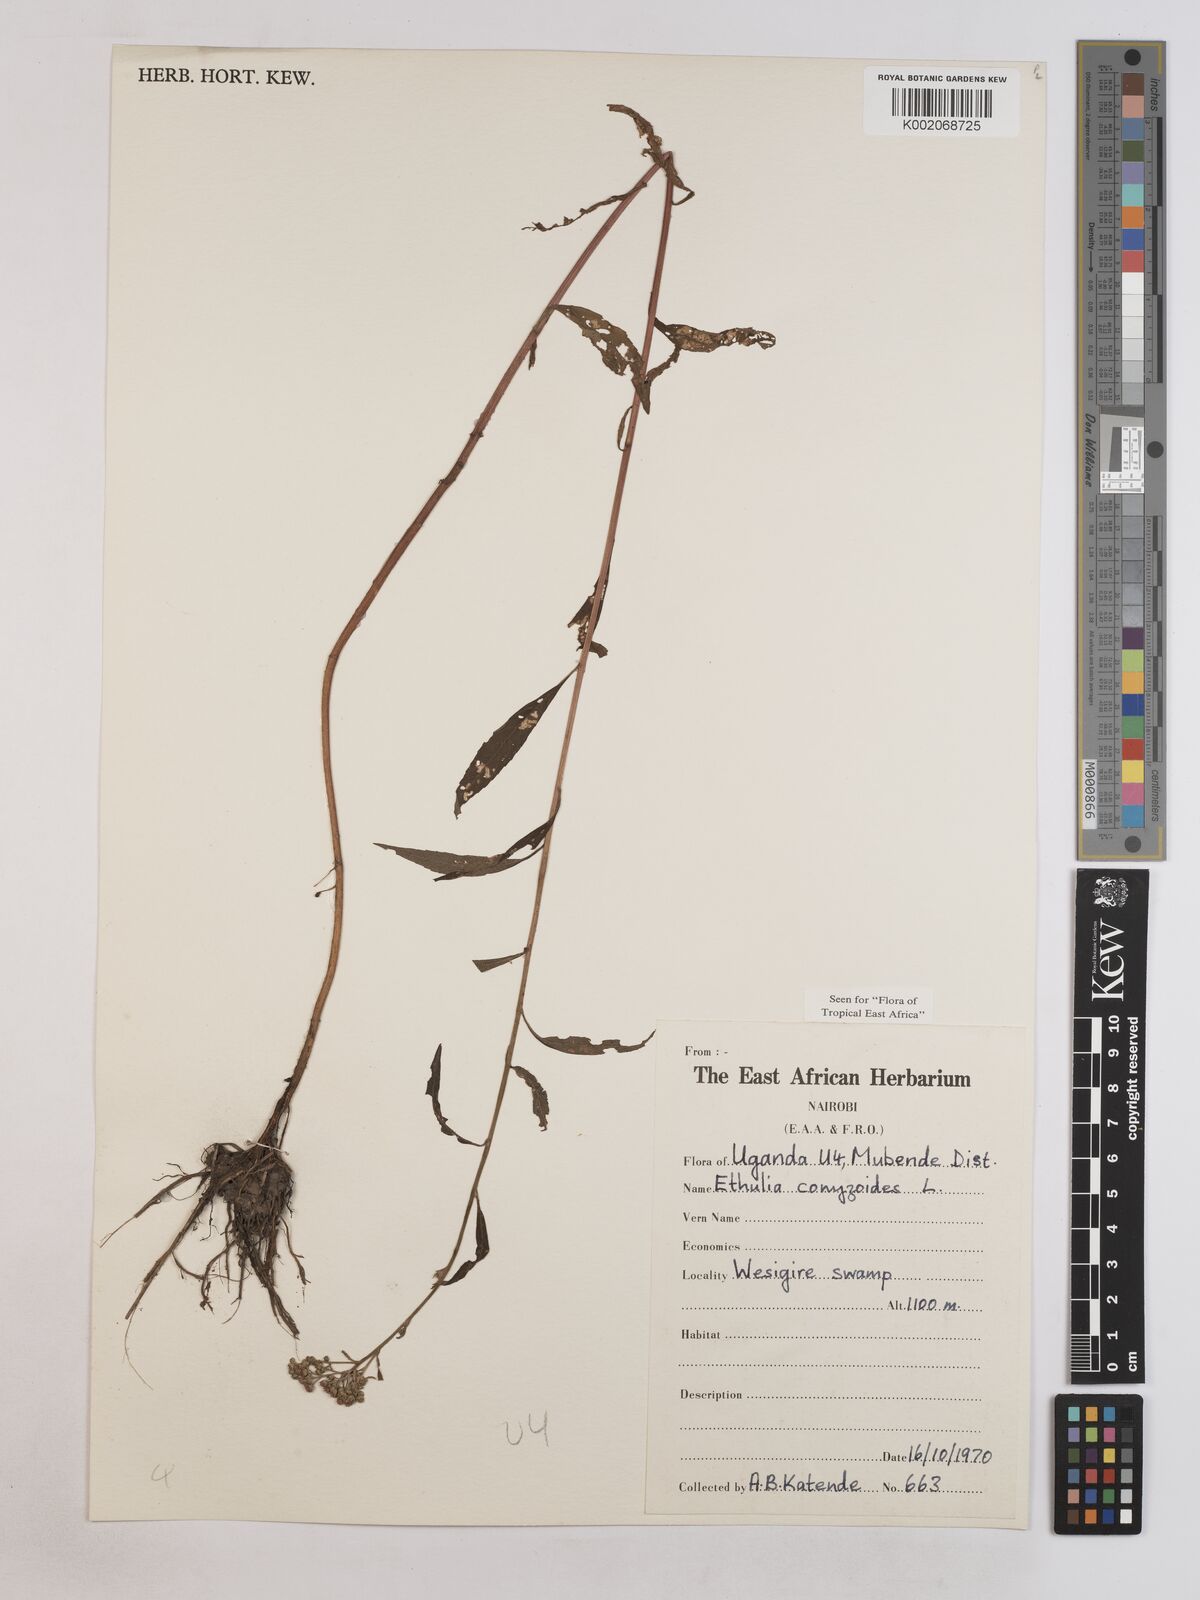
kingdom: Plantae
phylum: Tracheophyta
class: Magnoliopsida
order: Asterales
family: Asteraceae
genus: Ethulia
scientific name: Ethulia conyzoides
